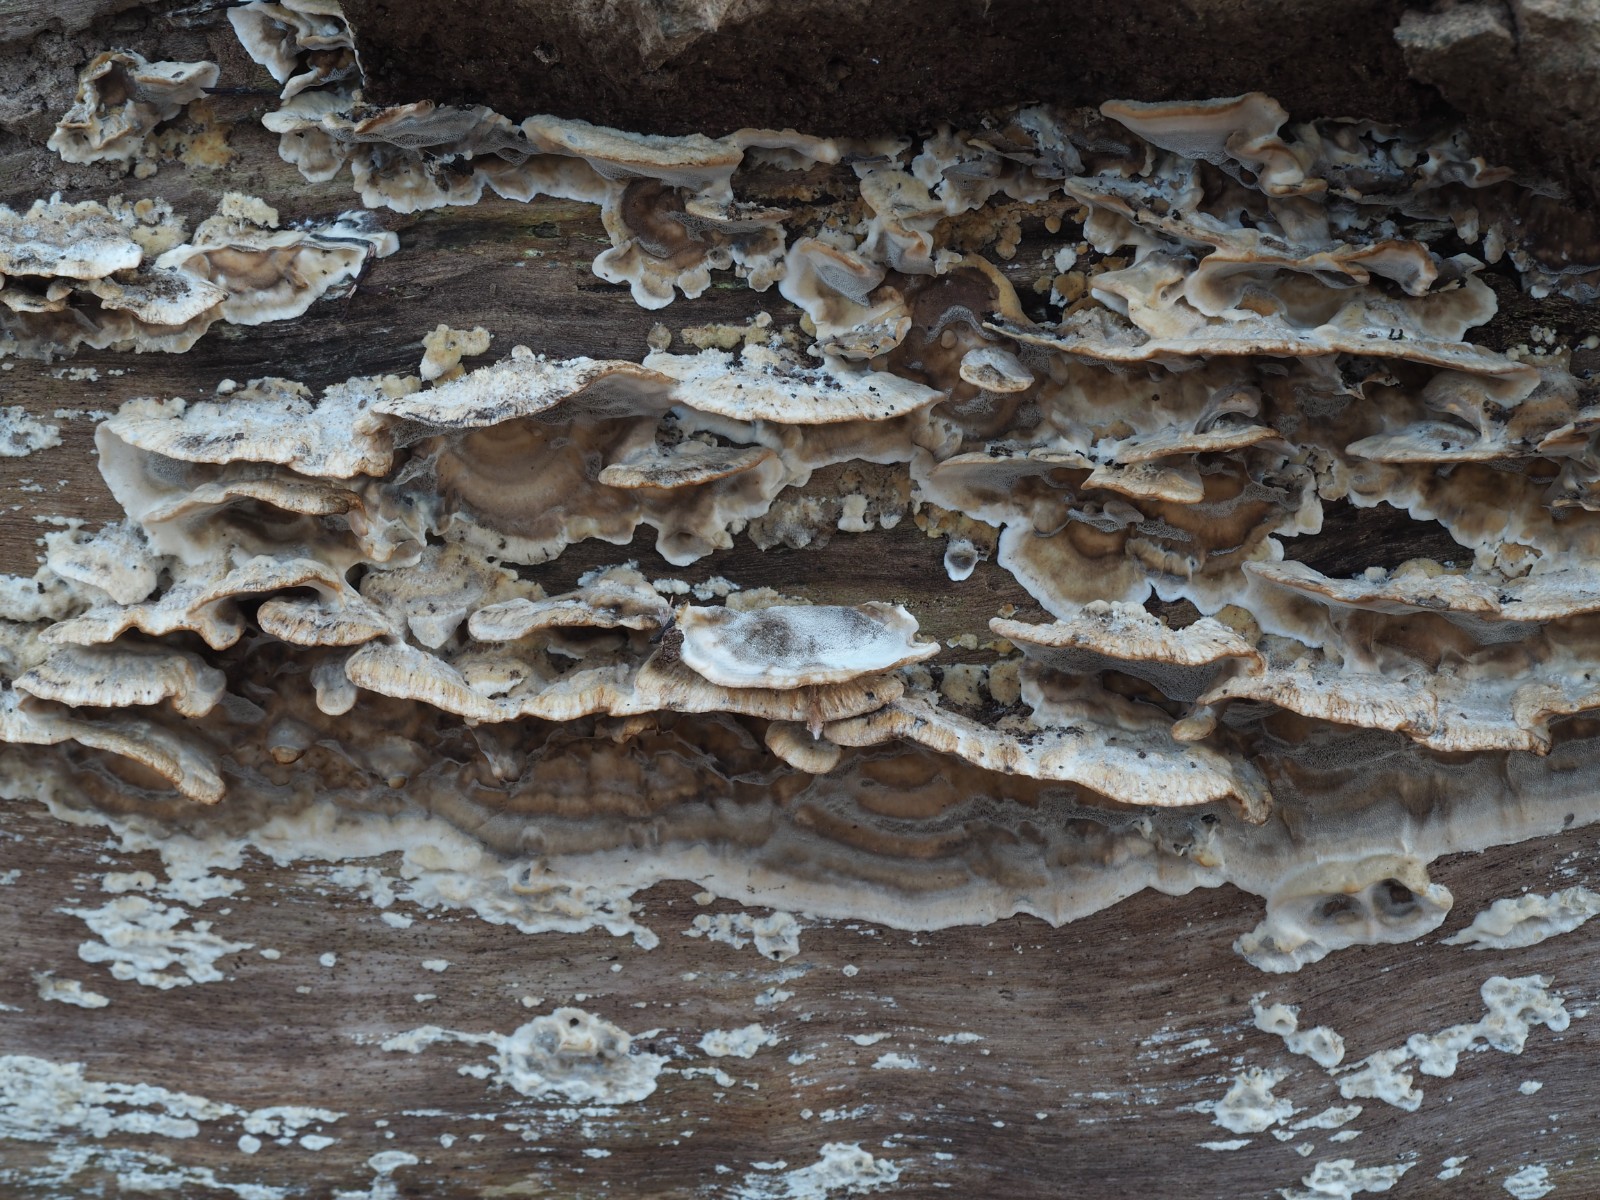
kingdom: Fungi
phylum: Basidiomycota
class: Agaricomycetes
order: Polyporales
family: Phanerochaetaceae
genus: Bjerkandera
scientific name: Bjerkandera adusta
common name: sveden sodporesvamp
